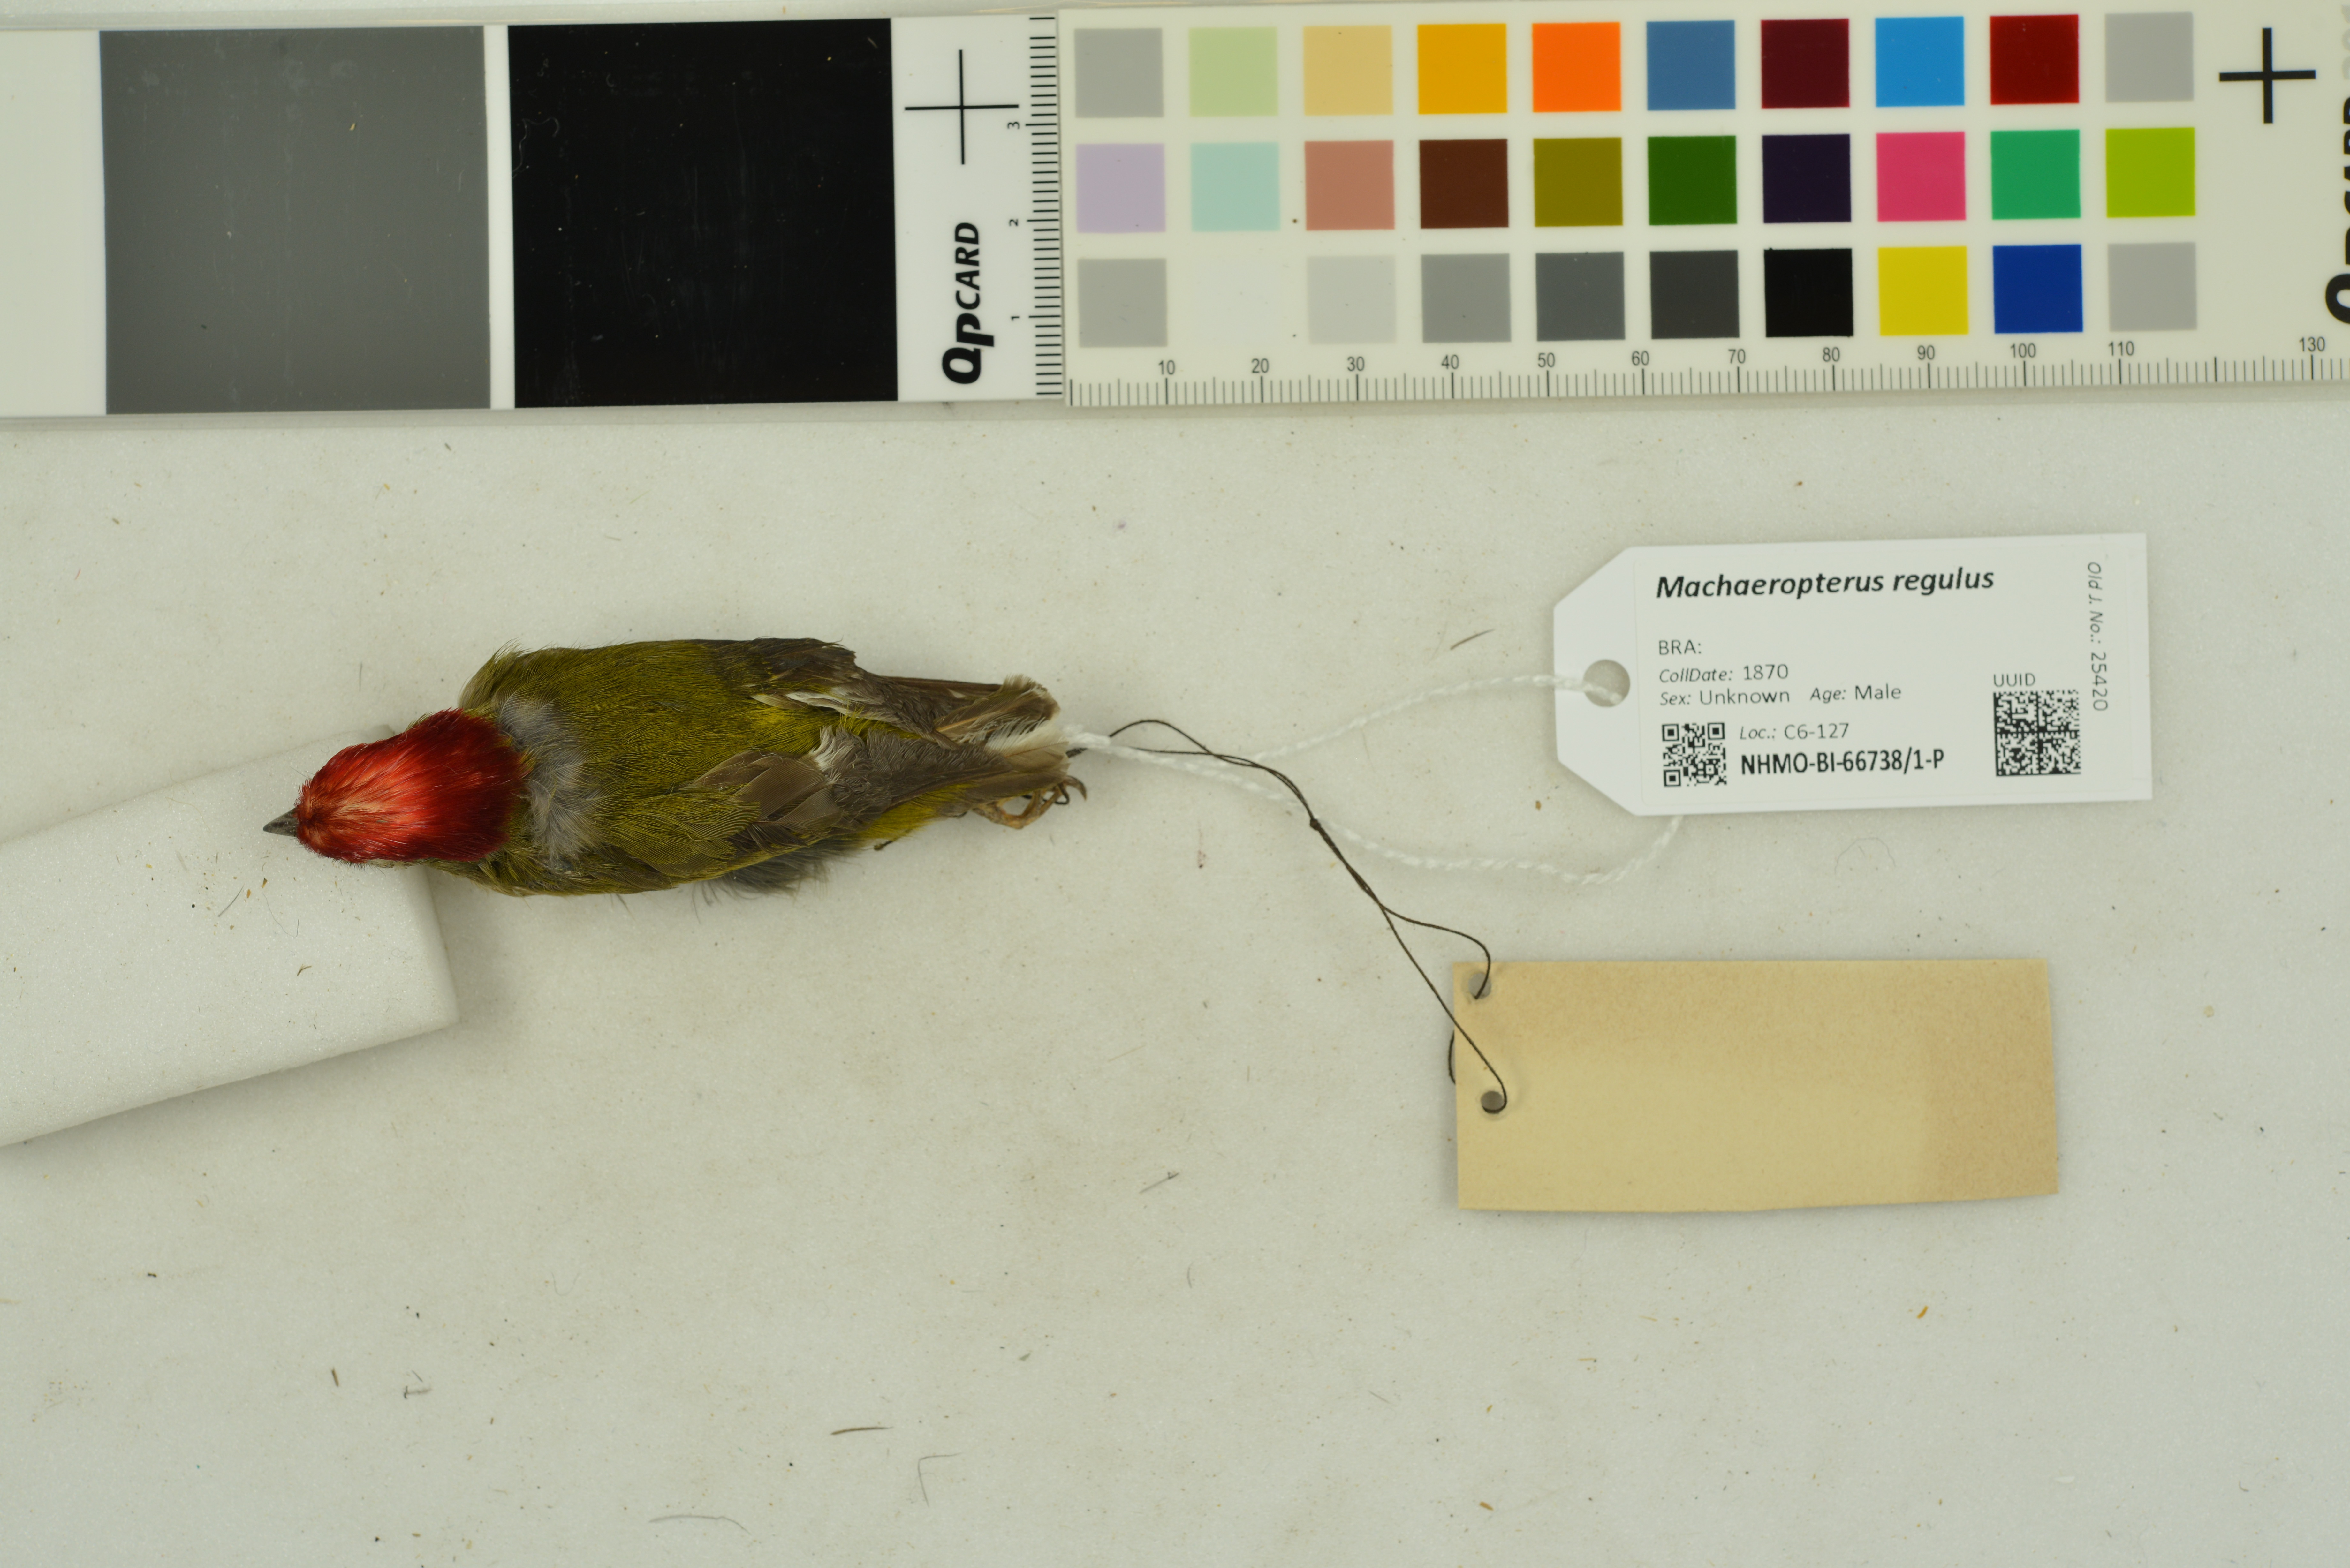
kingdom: Animalia
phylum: Chordata
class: Aves
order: Passeriformes
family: Pipridae
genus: Machaeropterus
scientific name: Machaeropterus regulus
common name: Eastern striped manakin
